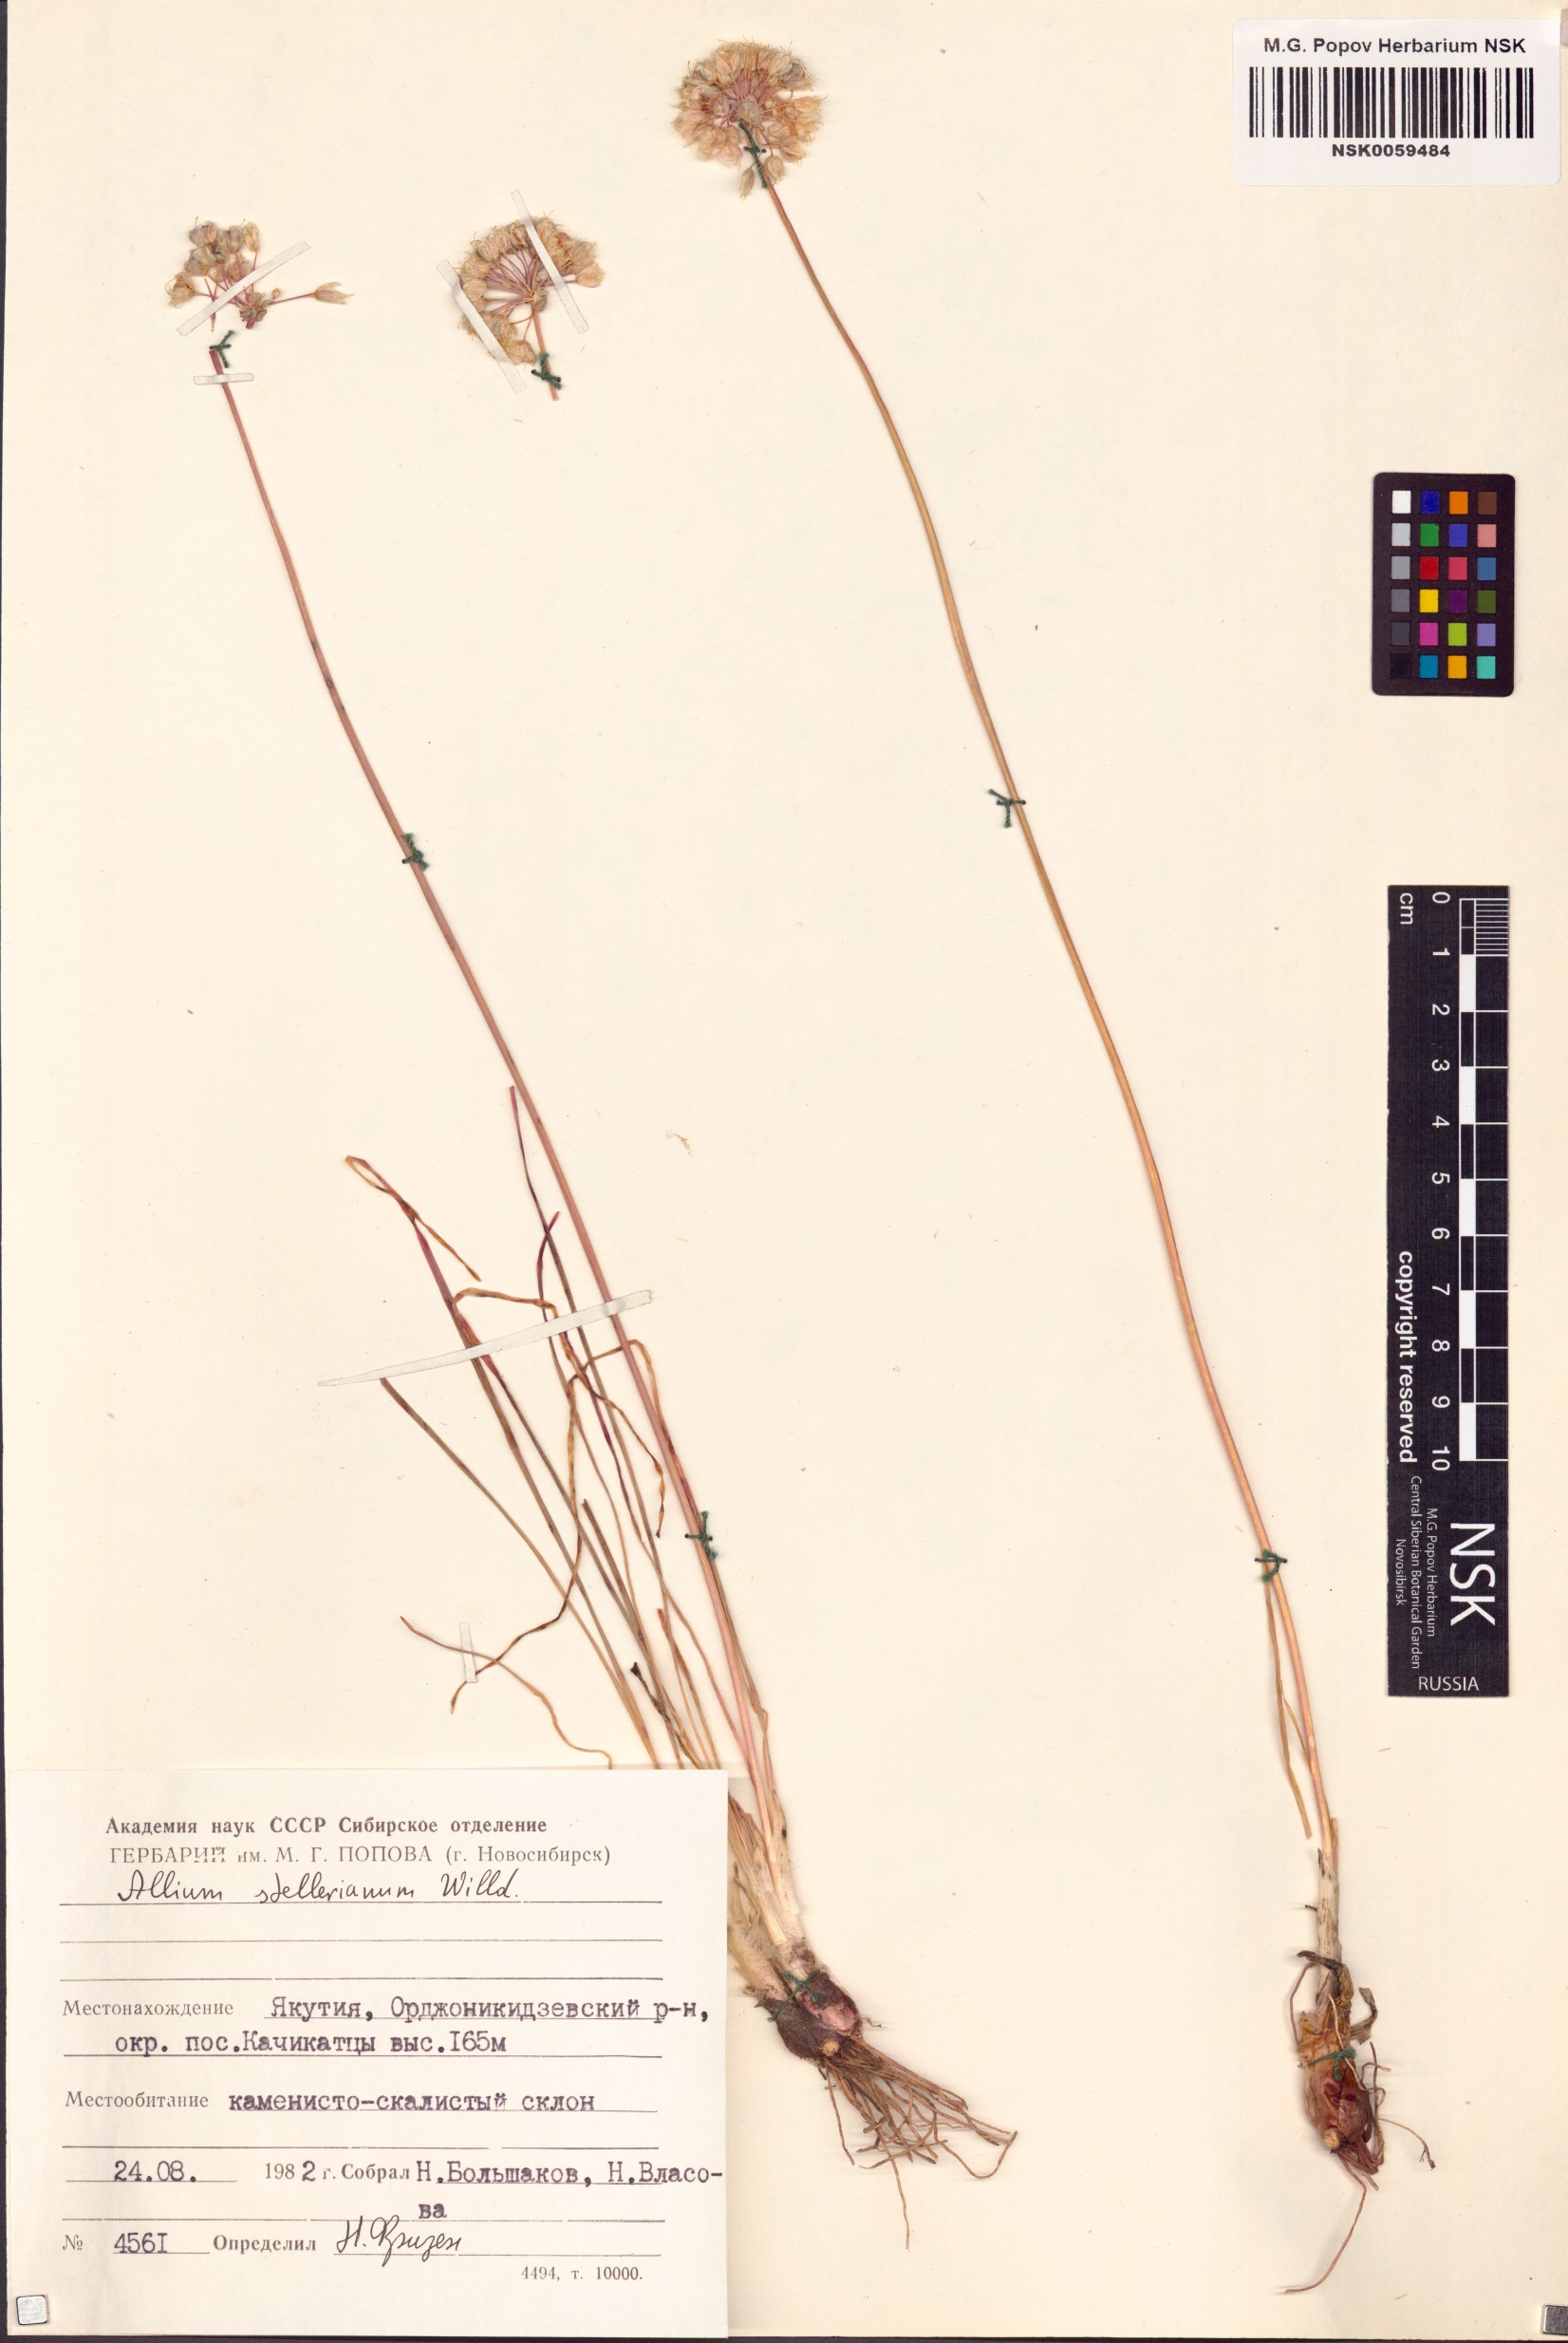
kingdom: Plantae
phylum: Tracheophyta
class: Liliopsida
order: Asparagales
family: Amaryllidaceae
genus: Allium
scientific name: Allium stellerianum
